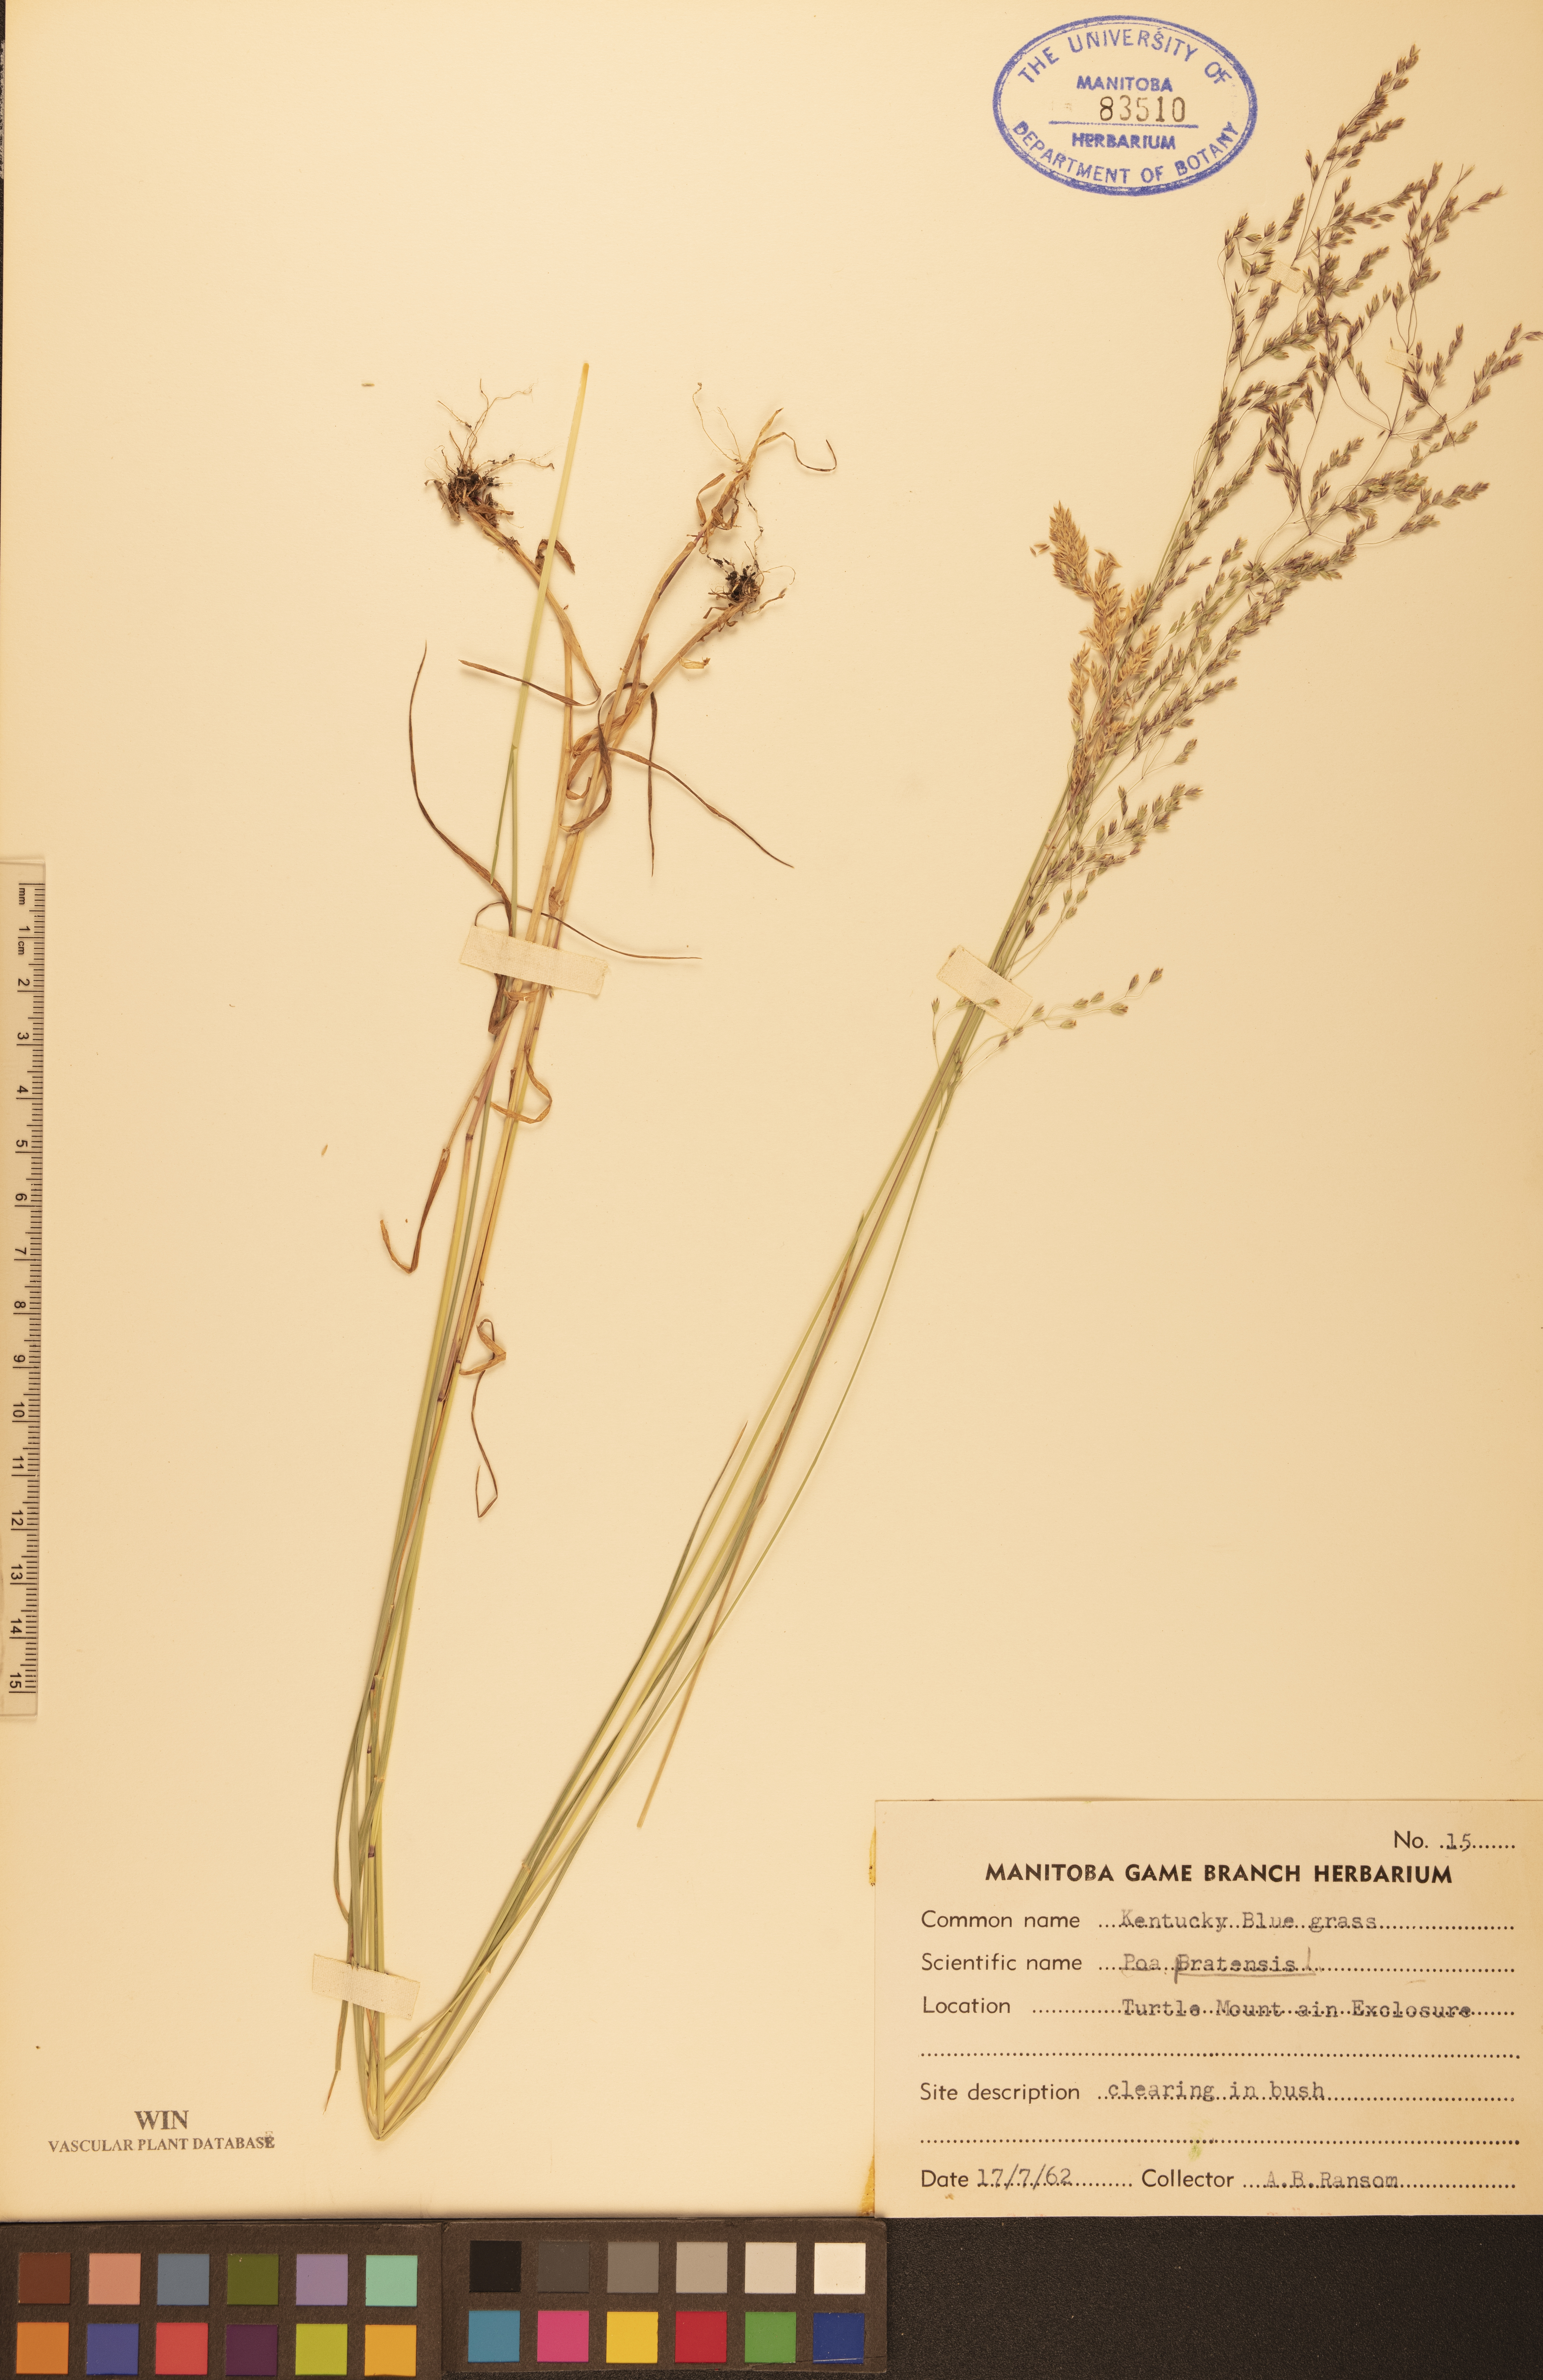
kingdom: Plantae
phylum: Tracheophyta
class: Liliopsida
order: Poales
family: Poaceae
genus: Poa
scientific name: Poa pratensis
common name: Kentucky bluegrass
